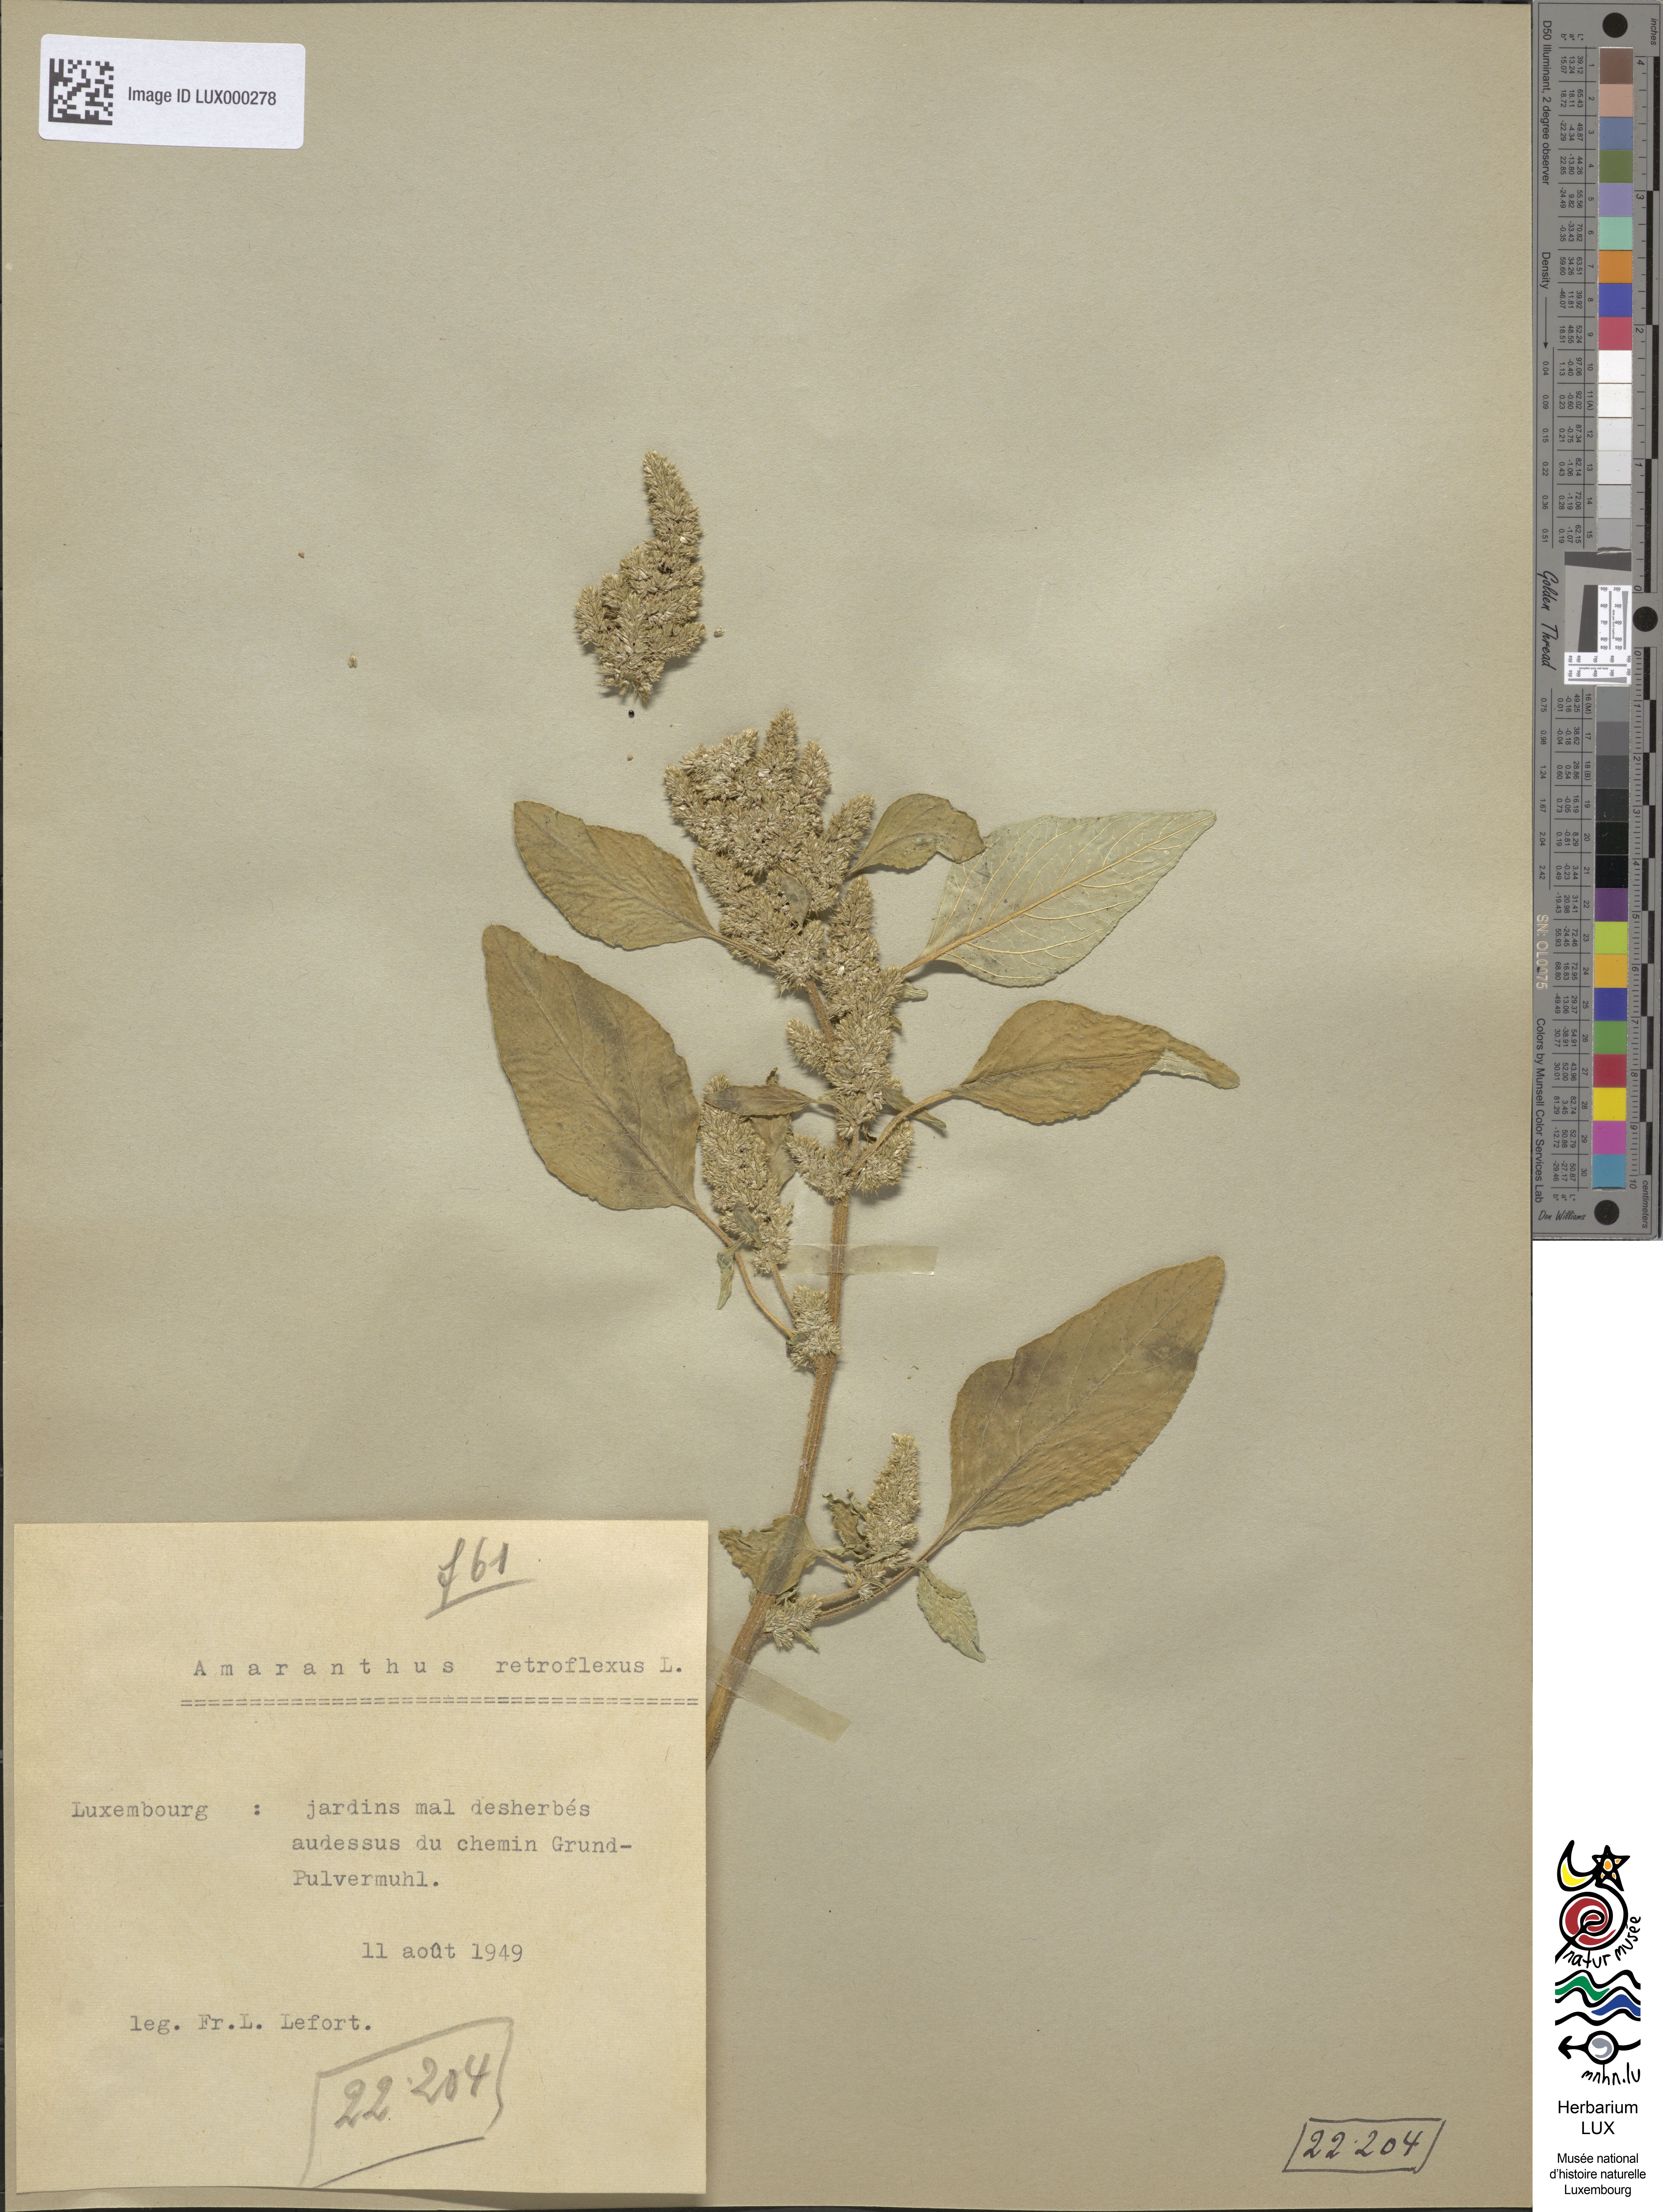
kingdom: Plantae
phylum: Tracheophyta
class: Magnoliopsida
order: Caryophyllales
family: Amaranthaceae
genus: Amaranthus
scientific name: Amaranthus retroflexus
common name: Redroot amaranth
